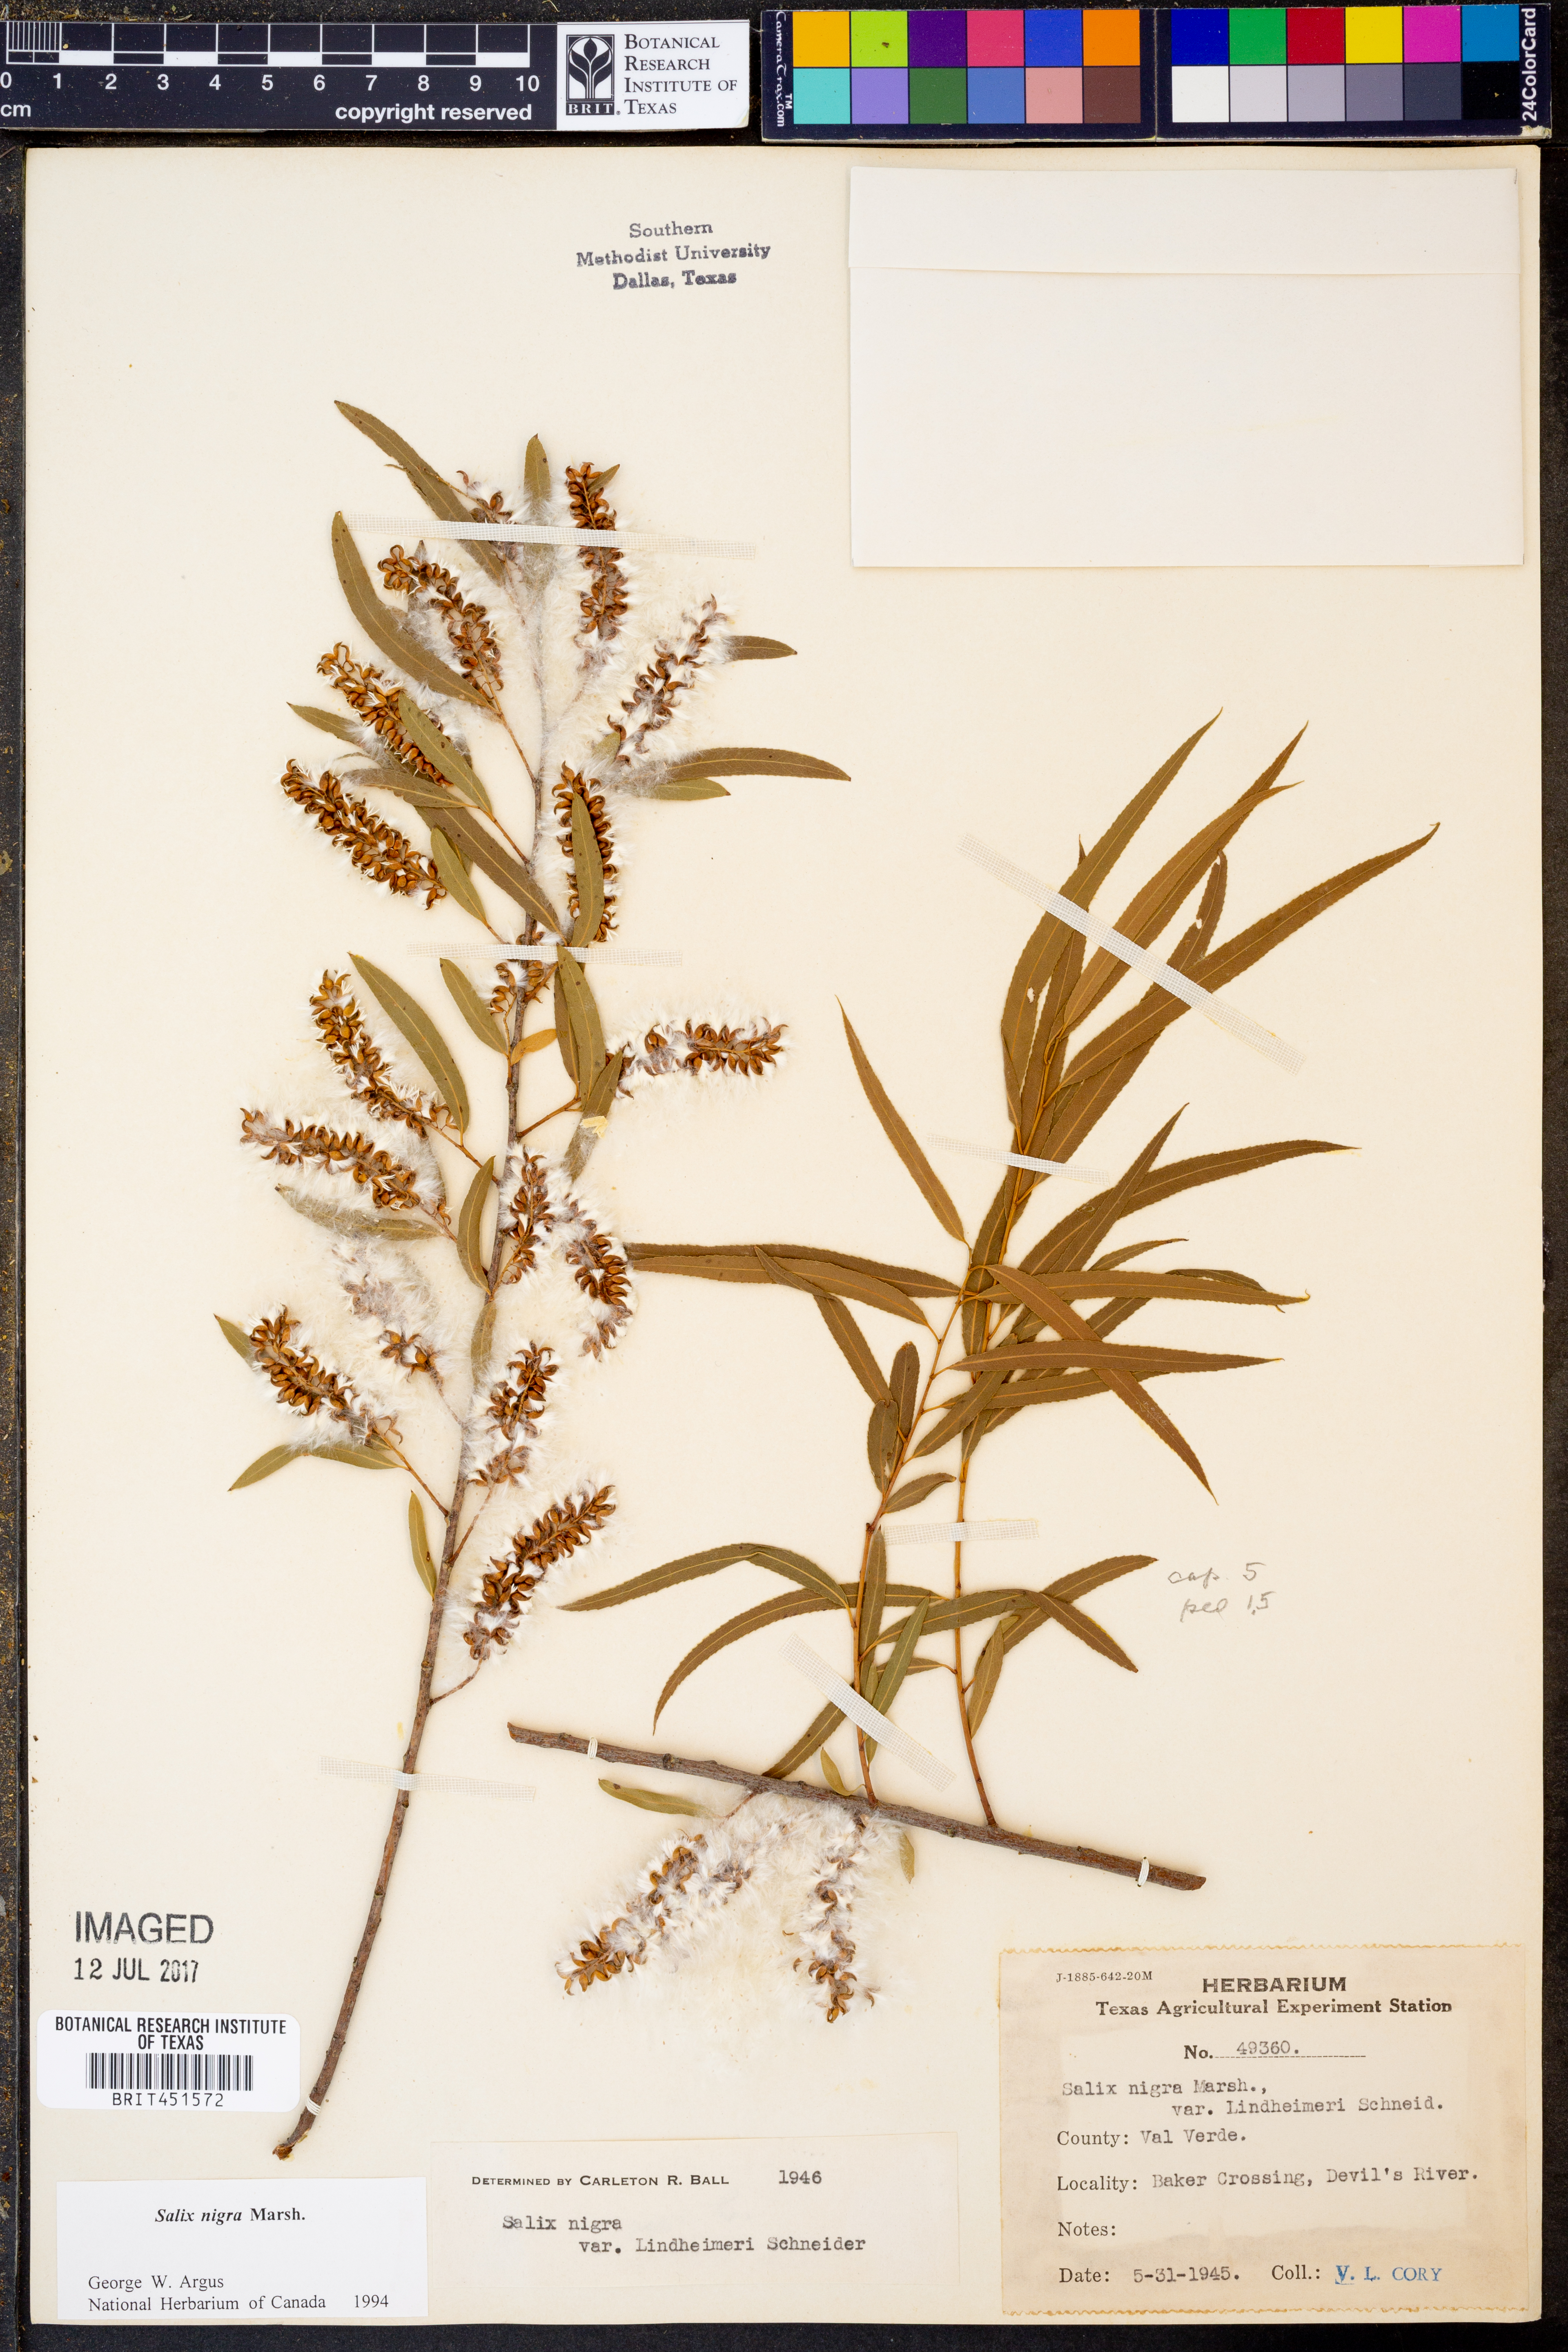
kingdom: Plantae
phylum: Tracheophyta
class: Magnoliopsida
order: Malpighiales
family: Salicaceae
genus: Salix
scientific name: Salix nigra
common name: Black willow
